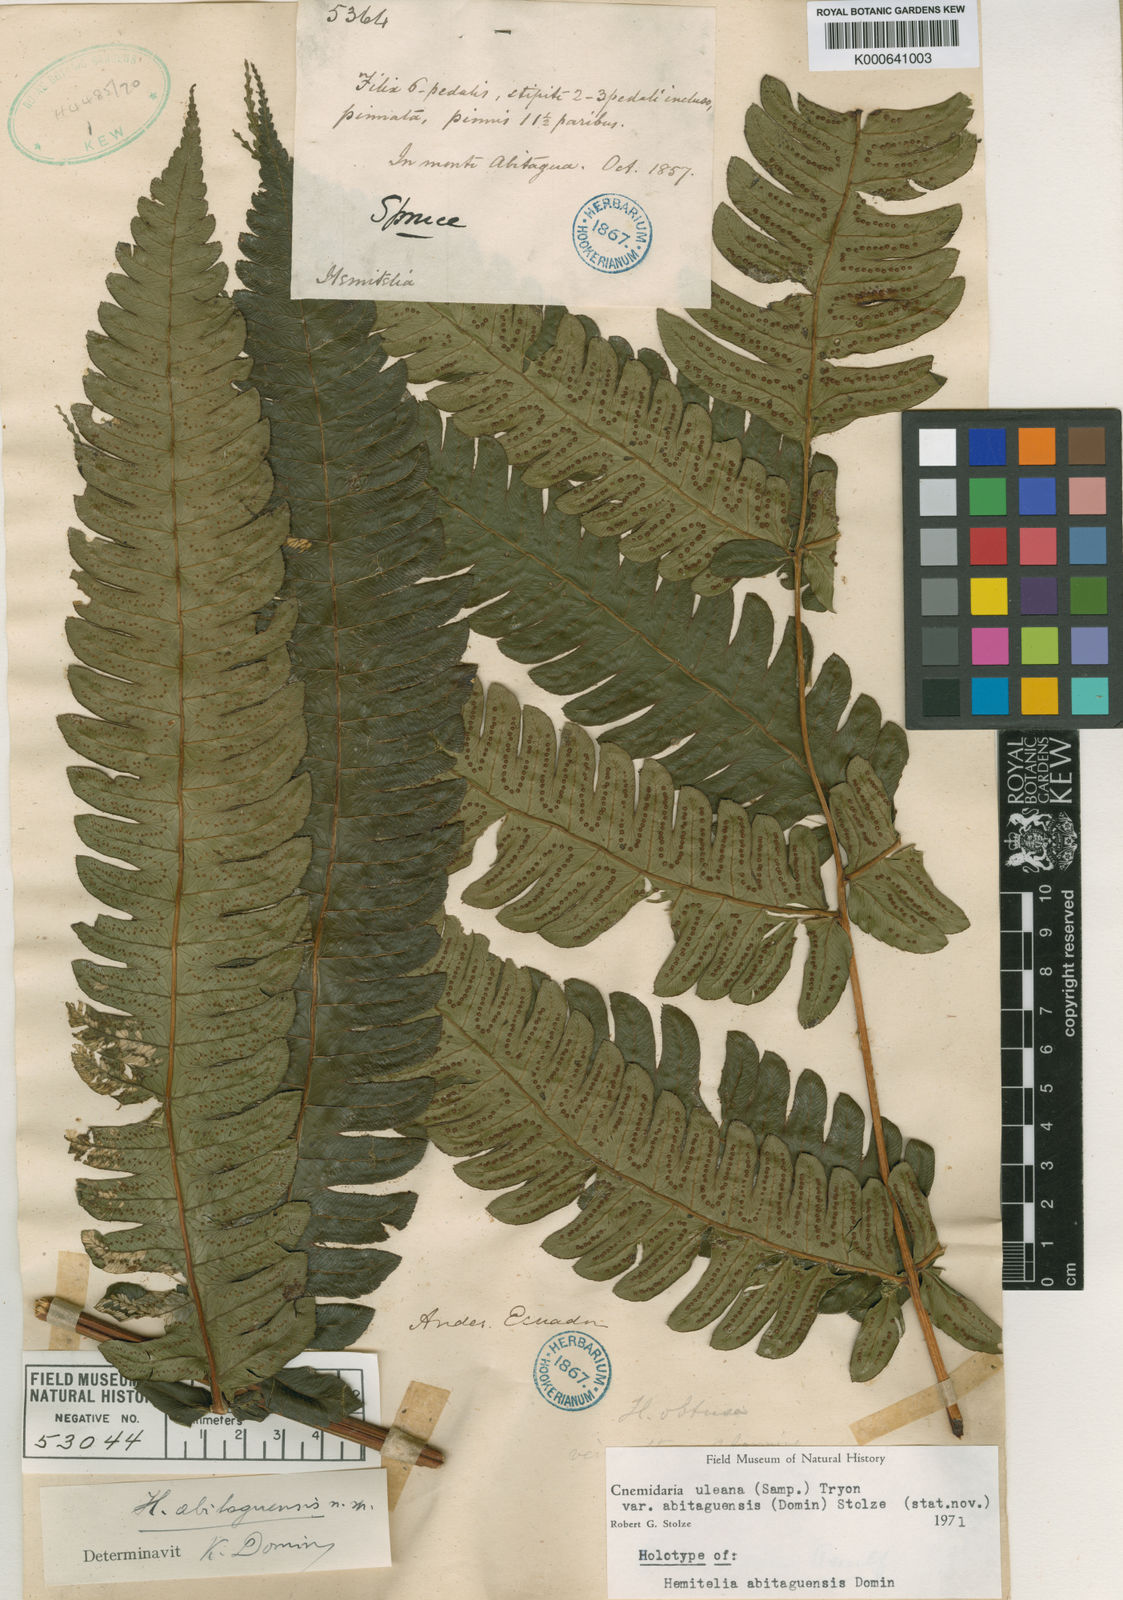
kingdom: Plantae
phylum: Tracheophyta
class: Polypodiopsida
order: Cyatheales
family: Cyatheaceae
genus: Cyathea
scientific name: Cyathea uleana
